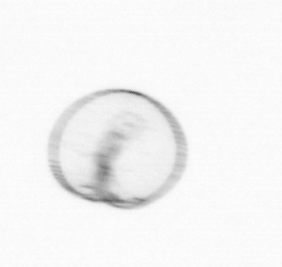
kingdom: Chromista
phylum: Myzozoa
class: Dinophyceae
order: Noctilucales
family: Noctilucaceae
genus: Noctiluca
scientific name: Noctiluca scintillans
